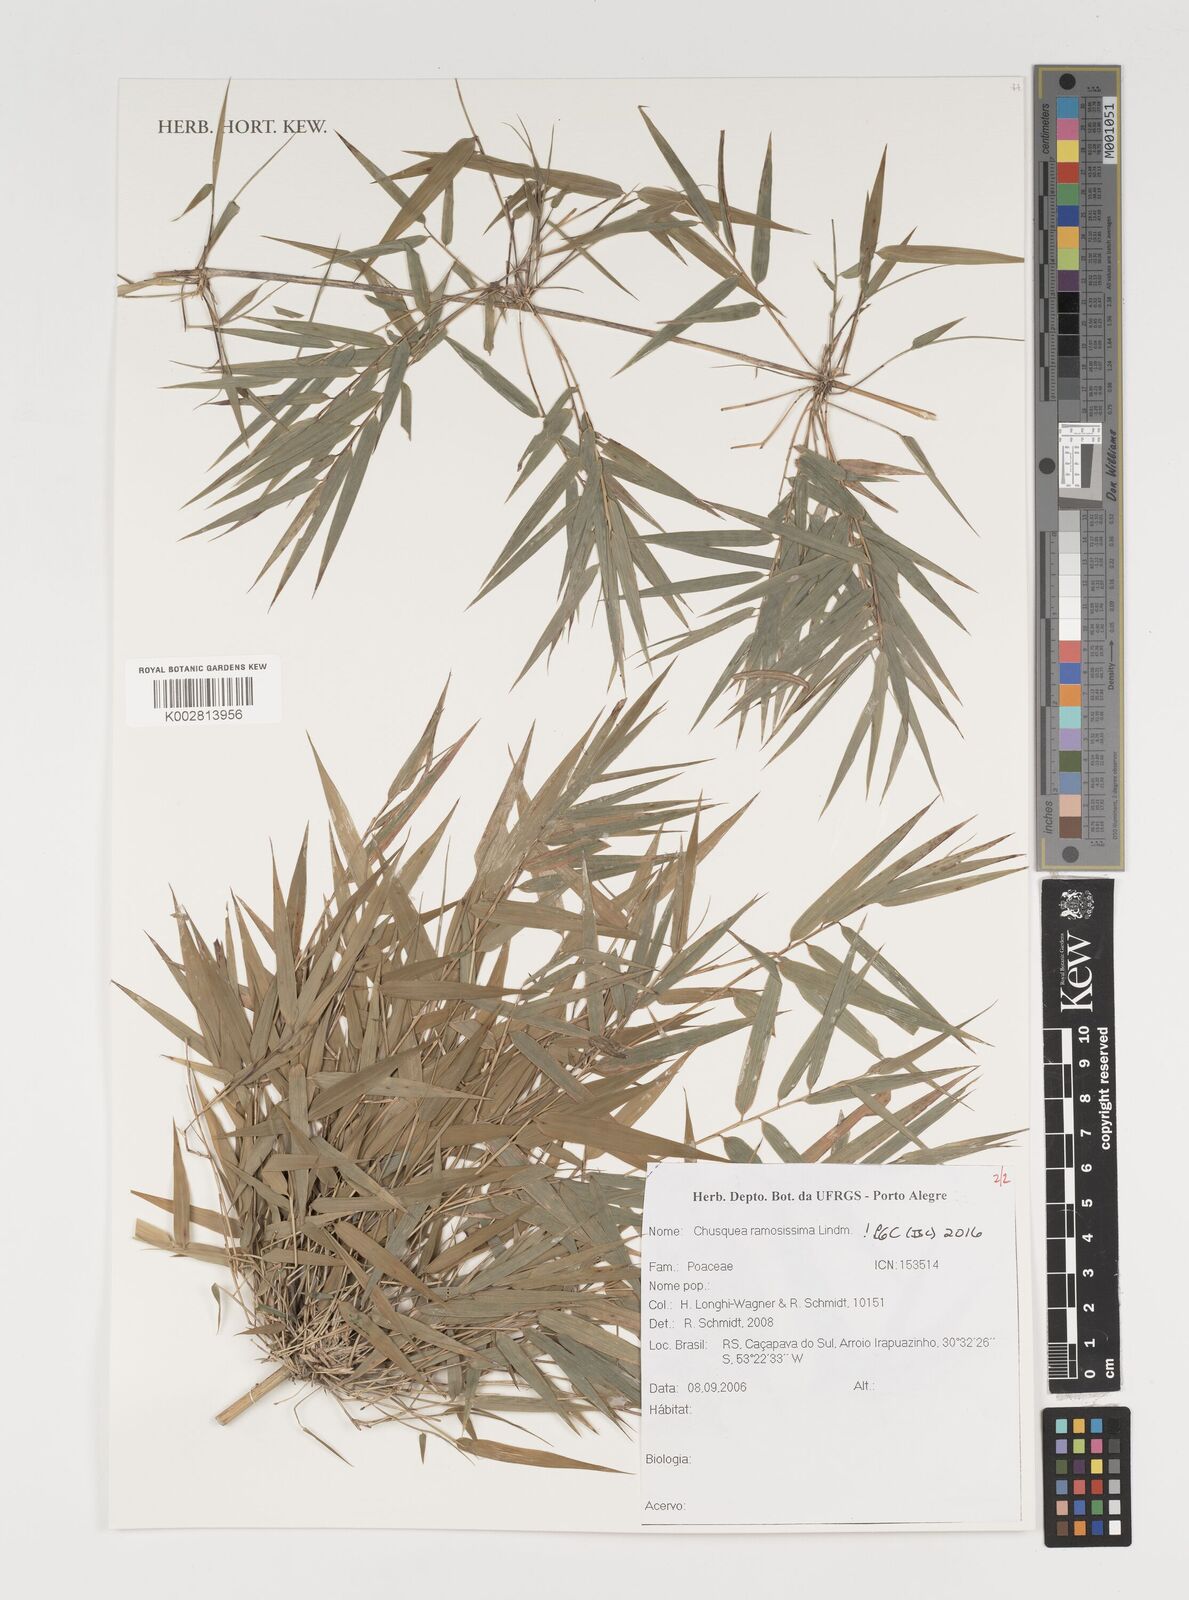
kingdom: Plantae
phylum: Tracheophyta
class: Liliopsida
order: Poales
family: Poaceae
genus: Chusquea
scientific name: Chusquea ramosissima
